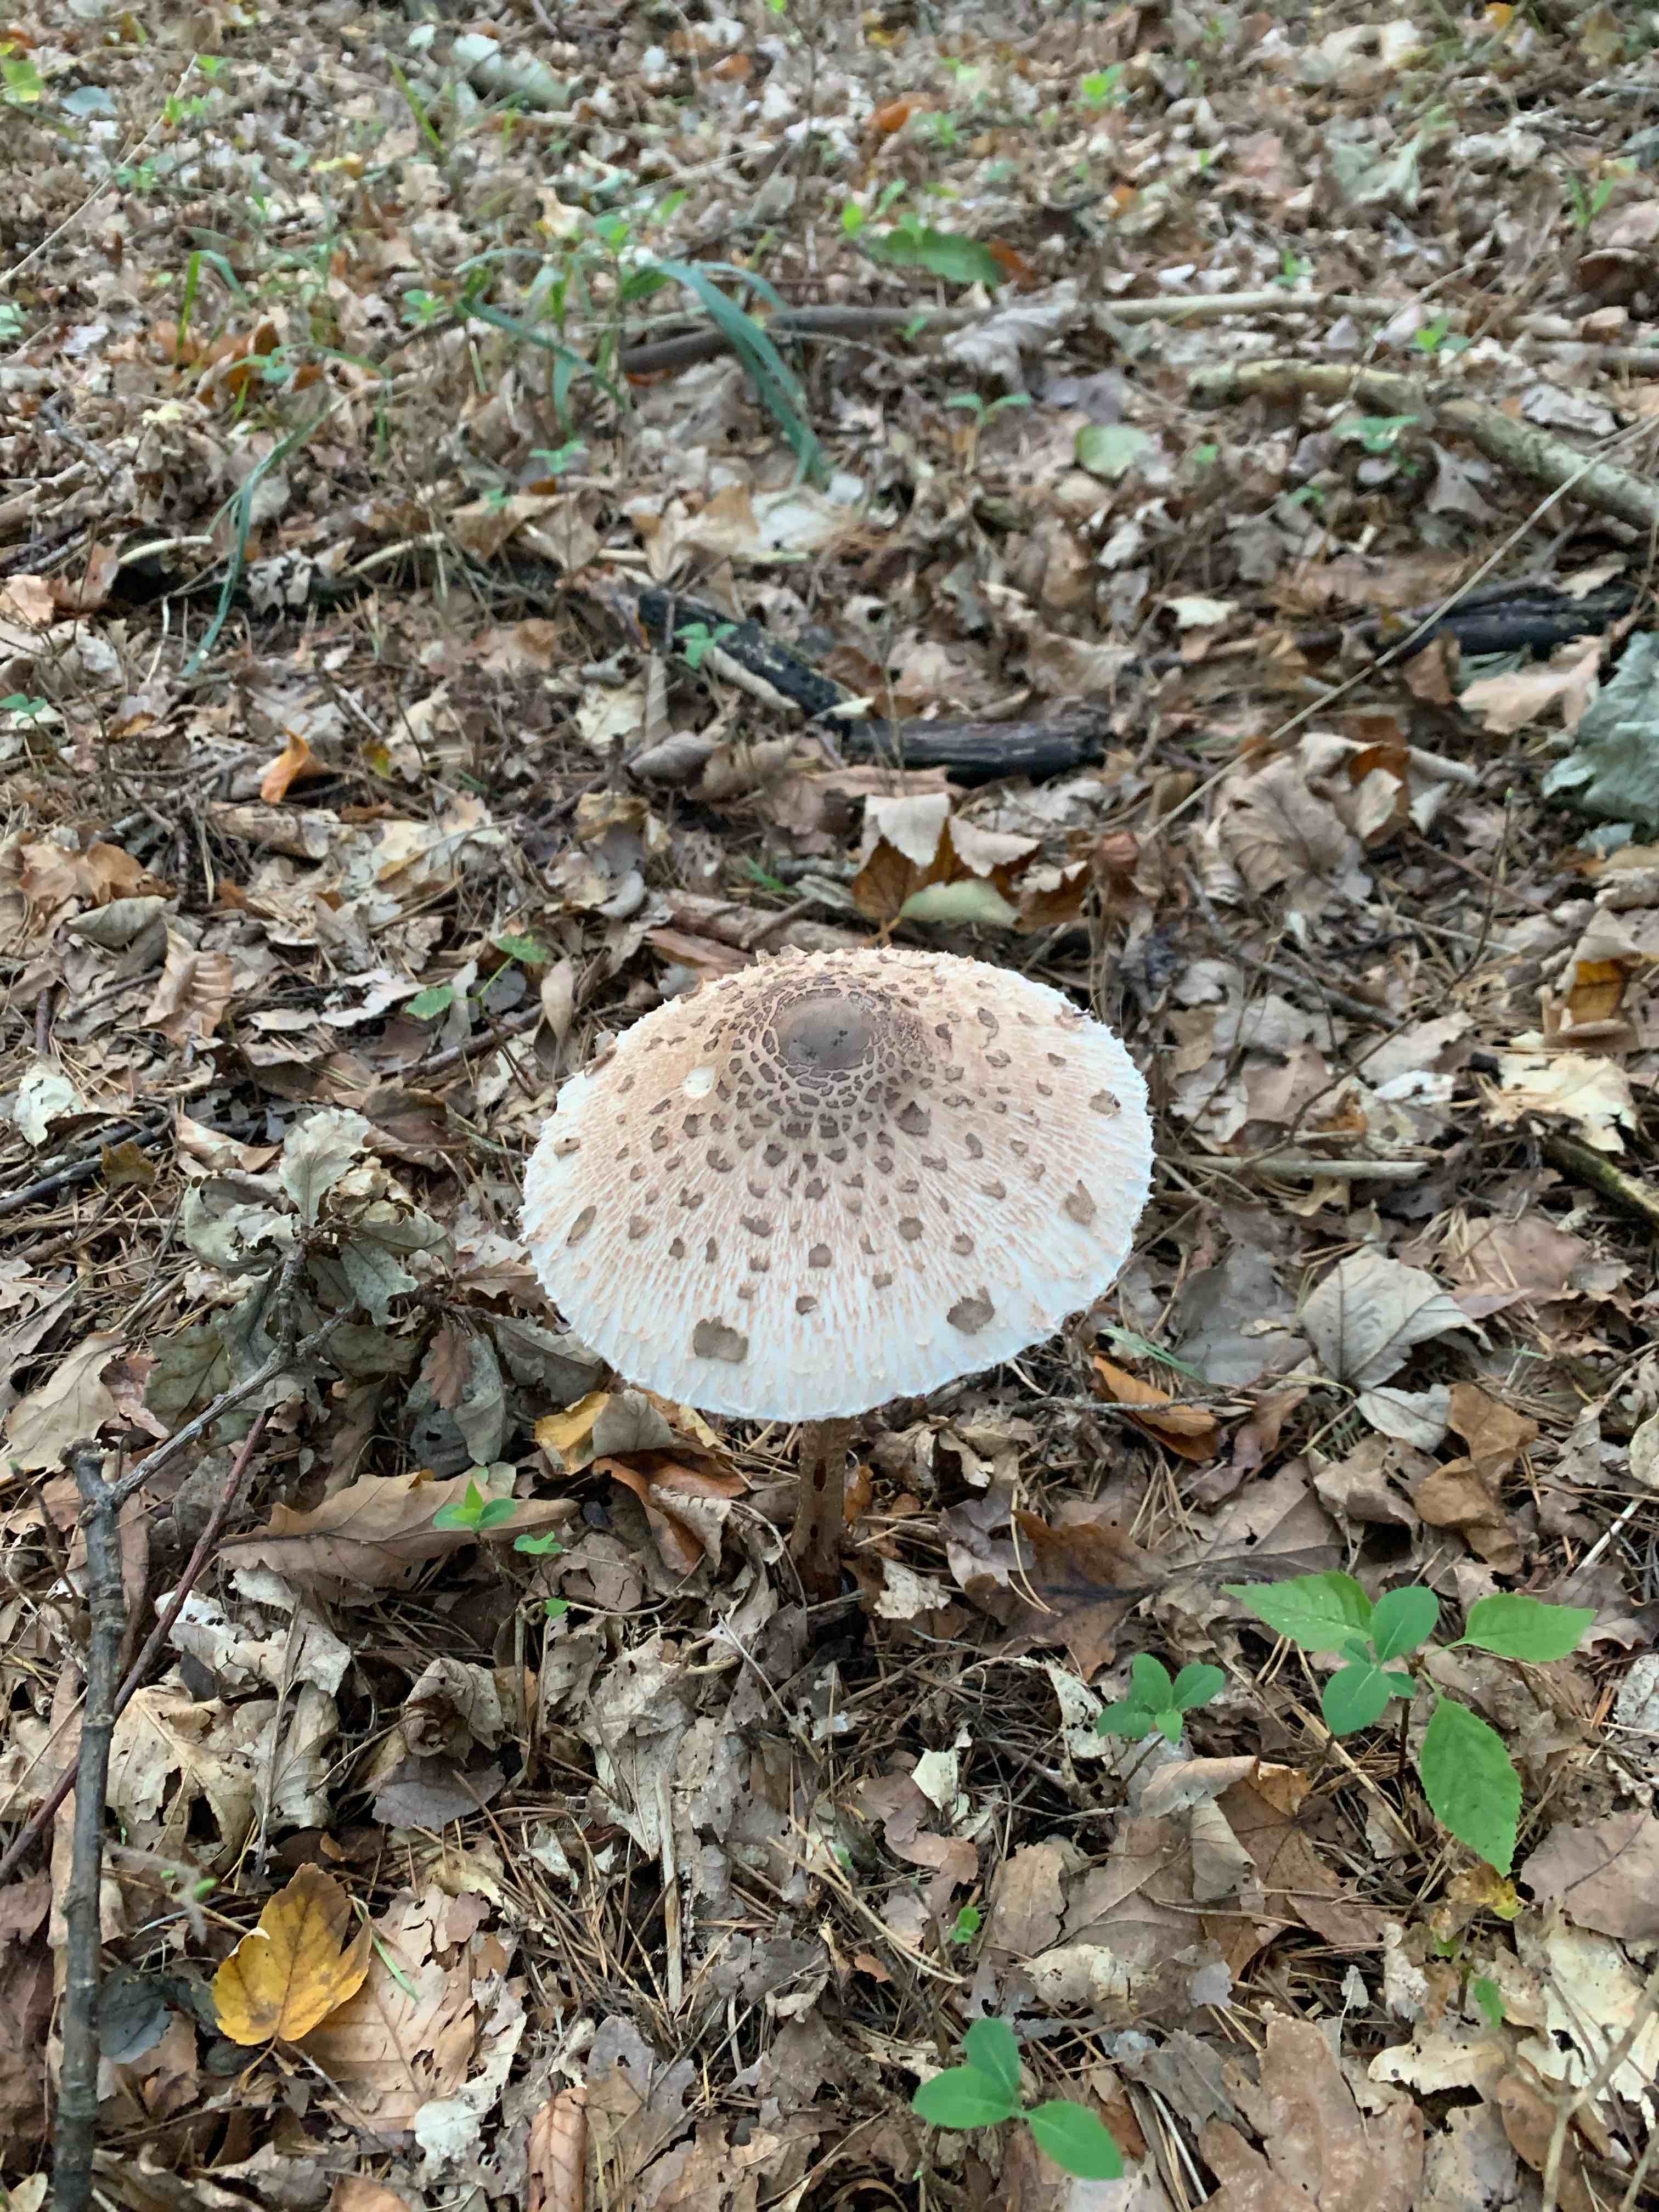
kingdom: Fungi
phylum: Basidiomycota
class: Agaricomycetes
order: Agaricales
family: Agaricaceae
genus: Macrolepiota
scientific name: Macrolepiota procera
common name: stor kæmpeparasolhat
